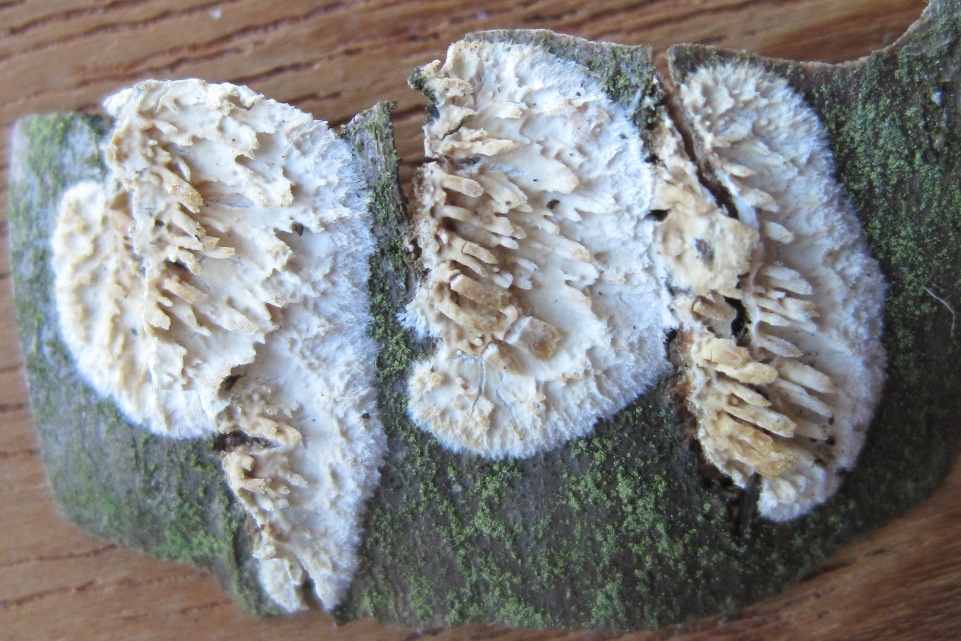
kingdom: Fungi
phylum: Basidiomycota
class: Agaricomycetes
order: Hymenochaetales
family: Schizoporaceae
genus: Xylodon
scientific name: Xylodon radula
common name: grovtandet kalkskind
